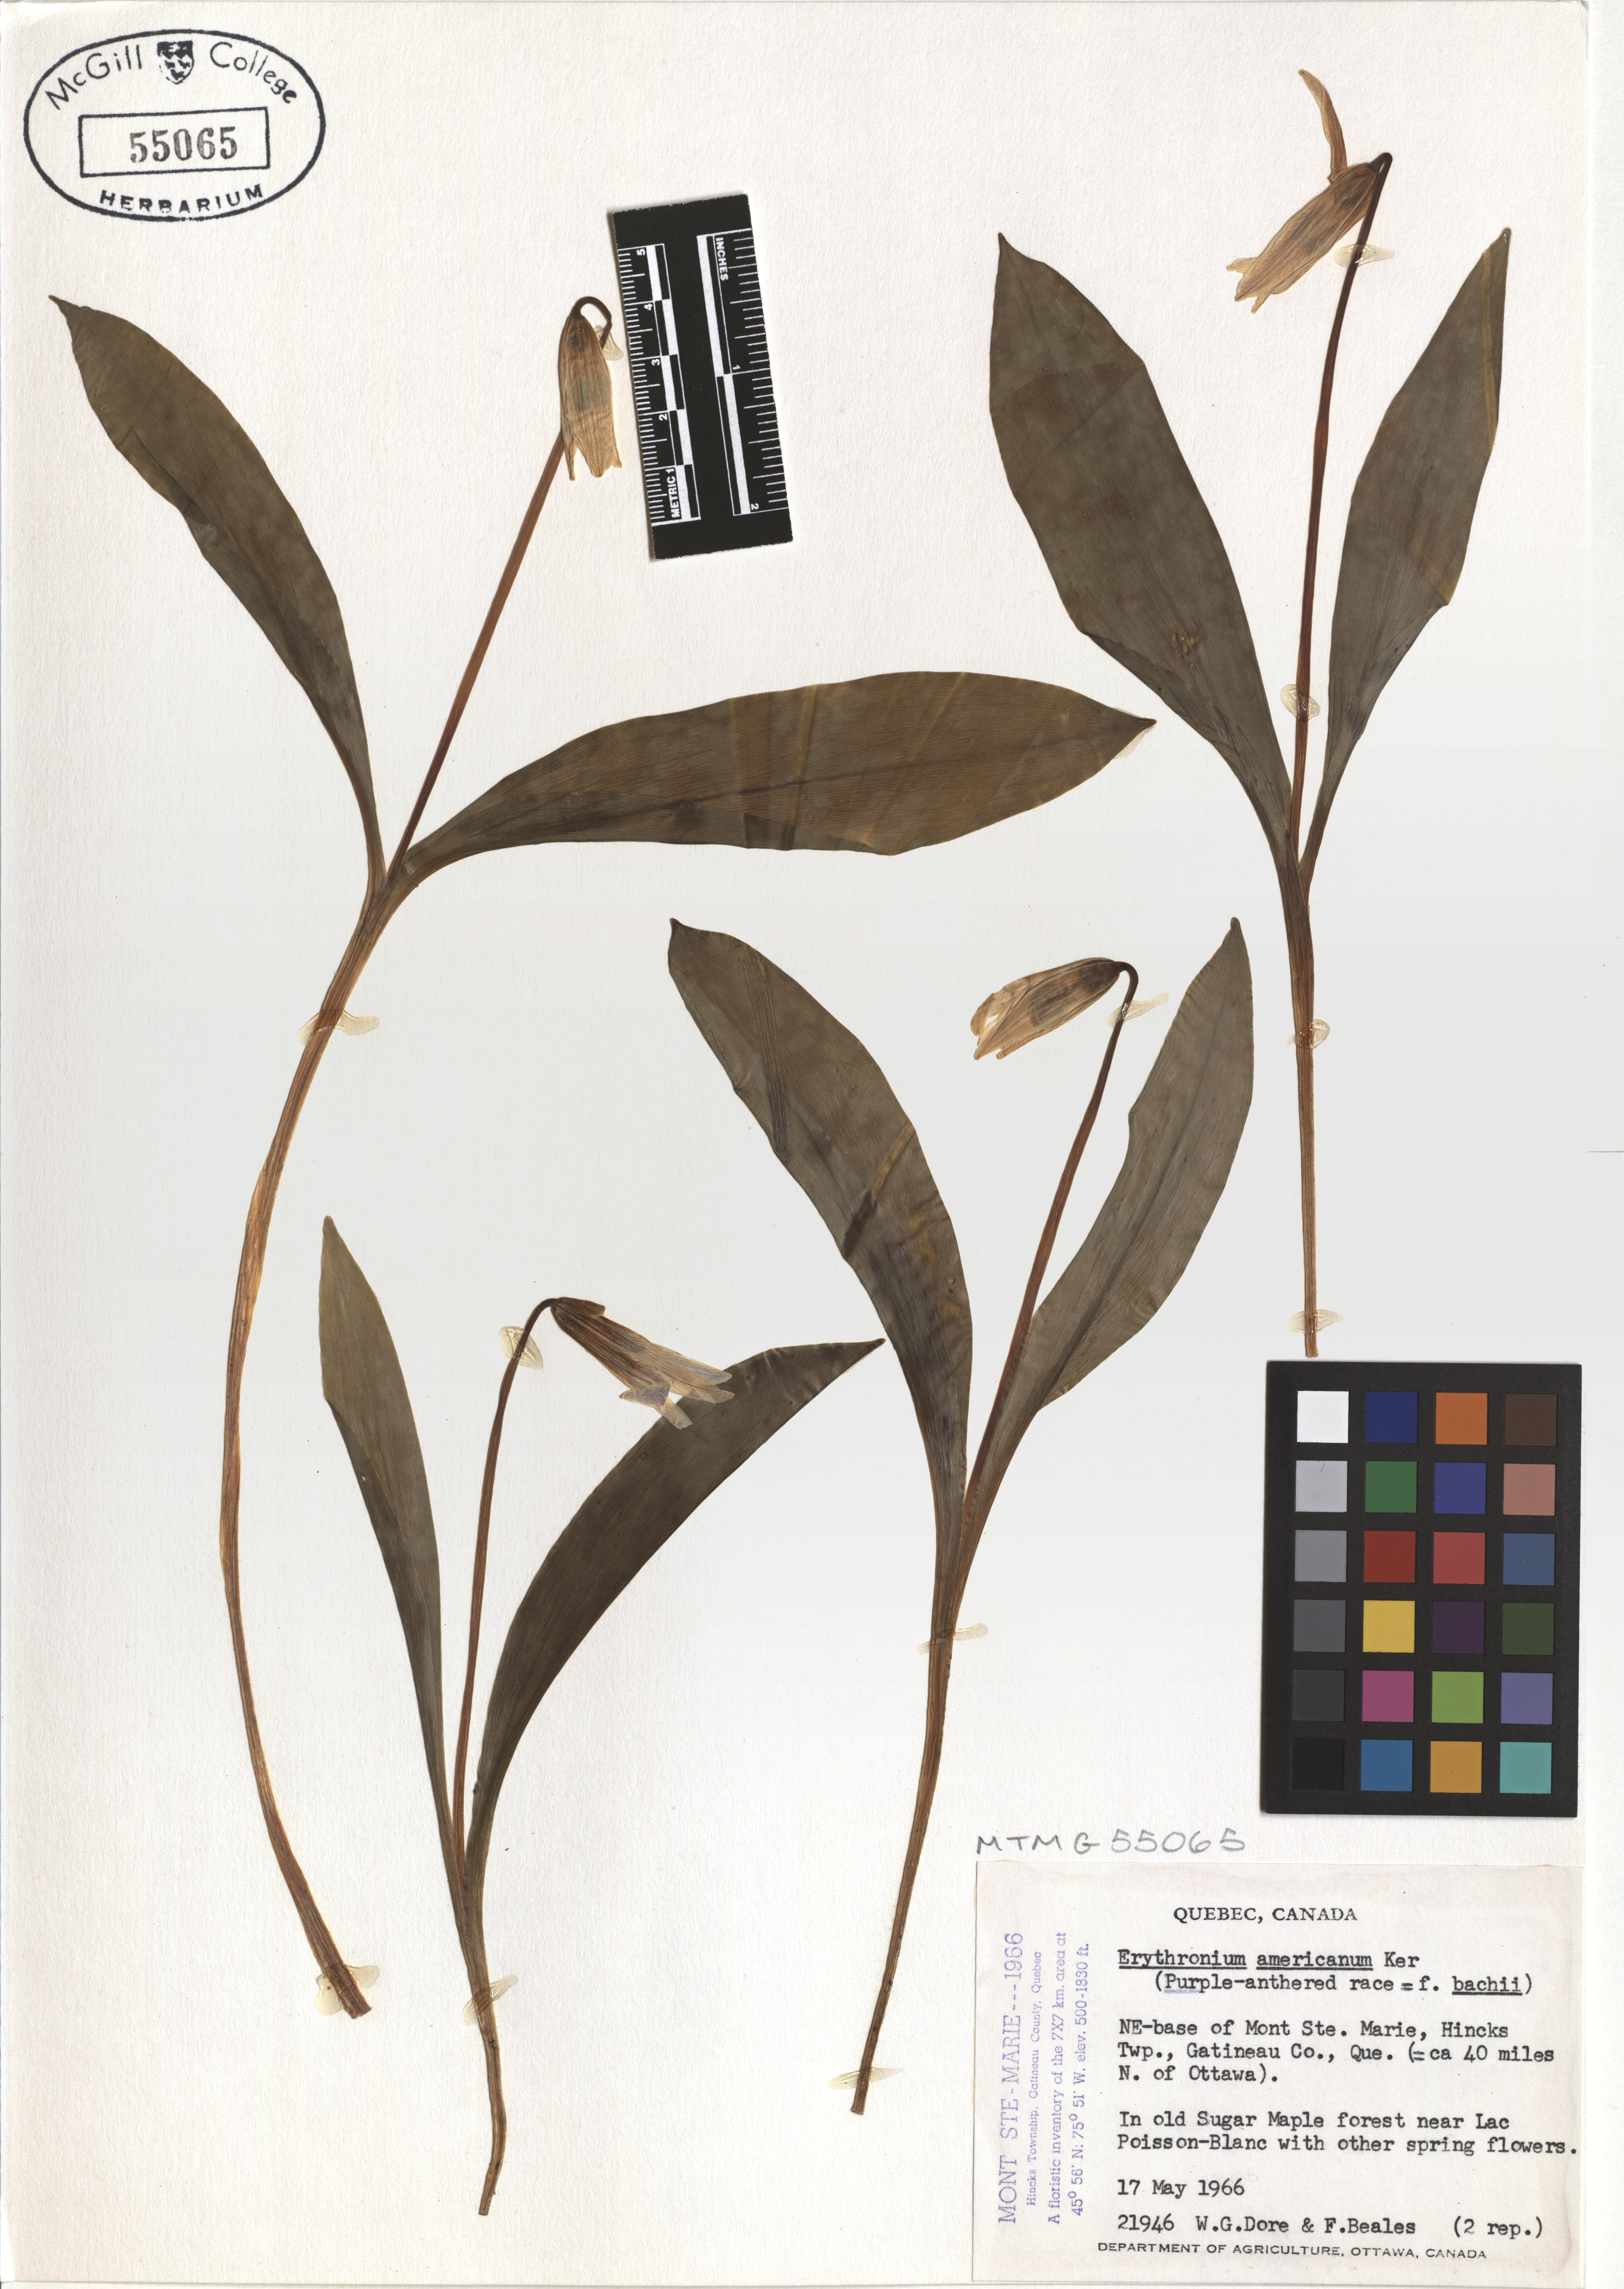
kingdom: Plantae
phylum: Tracheophyta
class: Liliopsida
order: Liliales
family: Liliaceae
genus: Erythronium
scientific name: Erythronium americanum
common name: Yellow adder's-tongue
